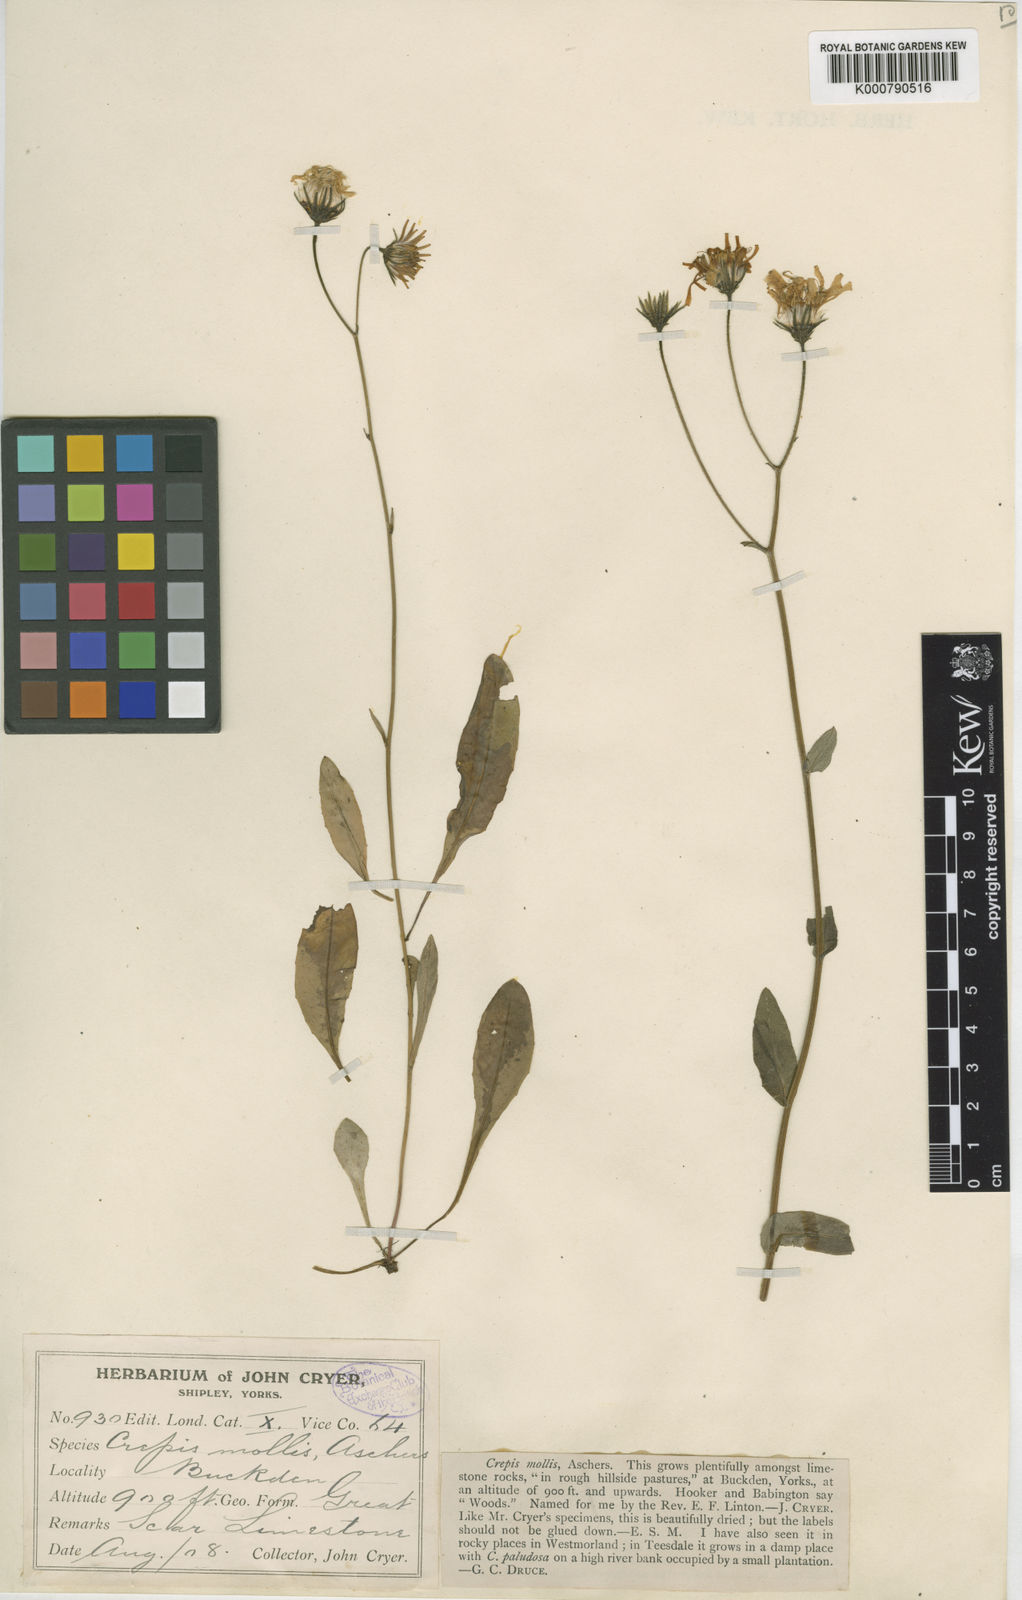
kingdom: Plantae
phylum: Tracheophyta
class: Magnoliopsida
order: Asterales
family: Asteraceae
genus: Crepis
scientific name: Crepis mollis
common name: Northern hawk's-beard
